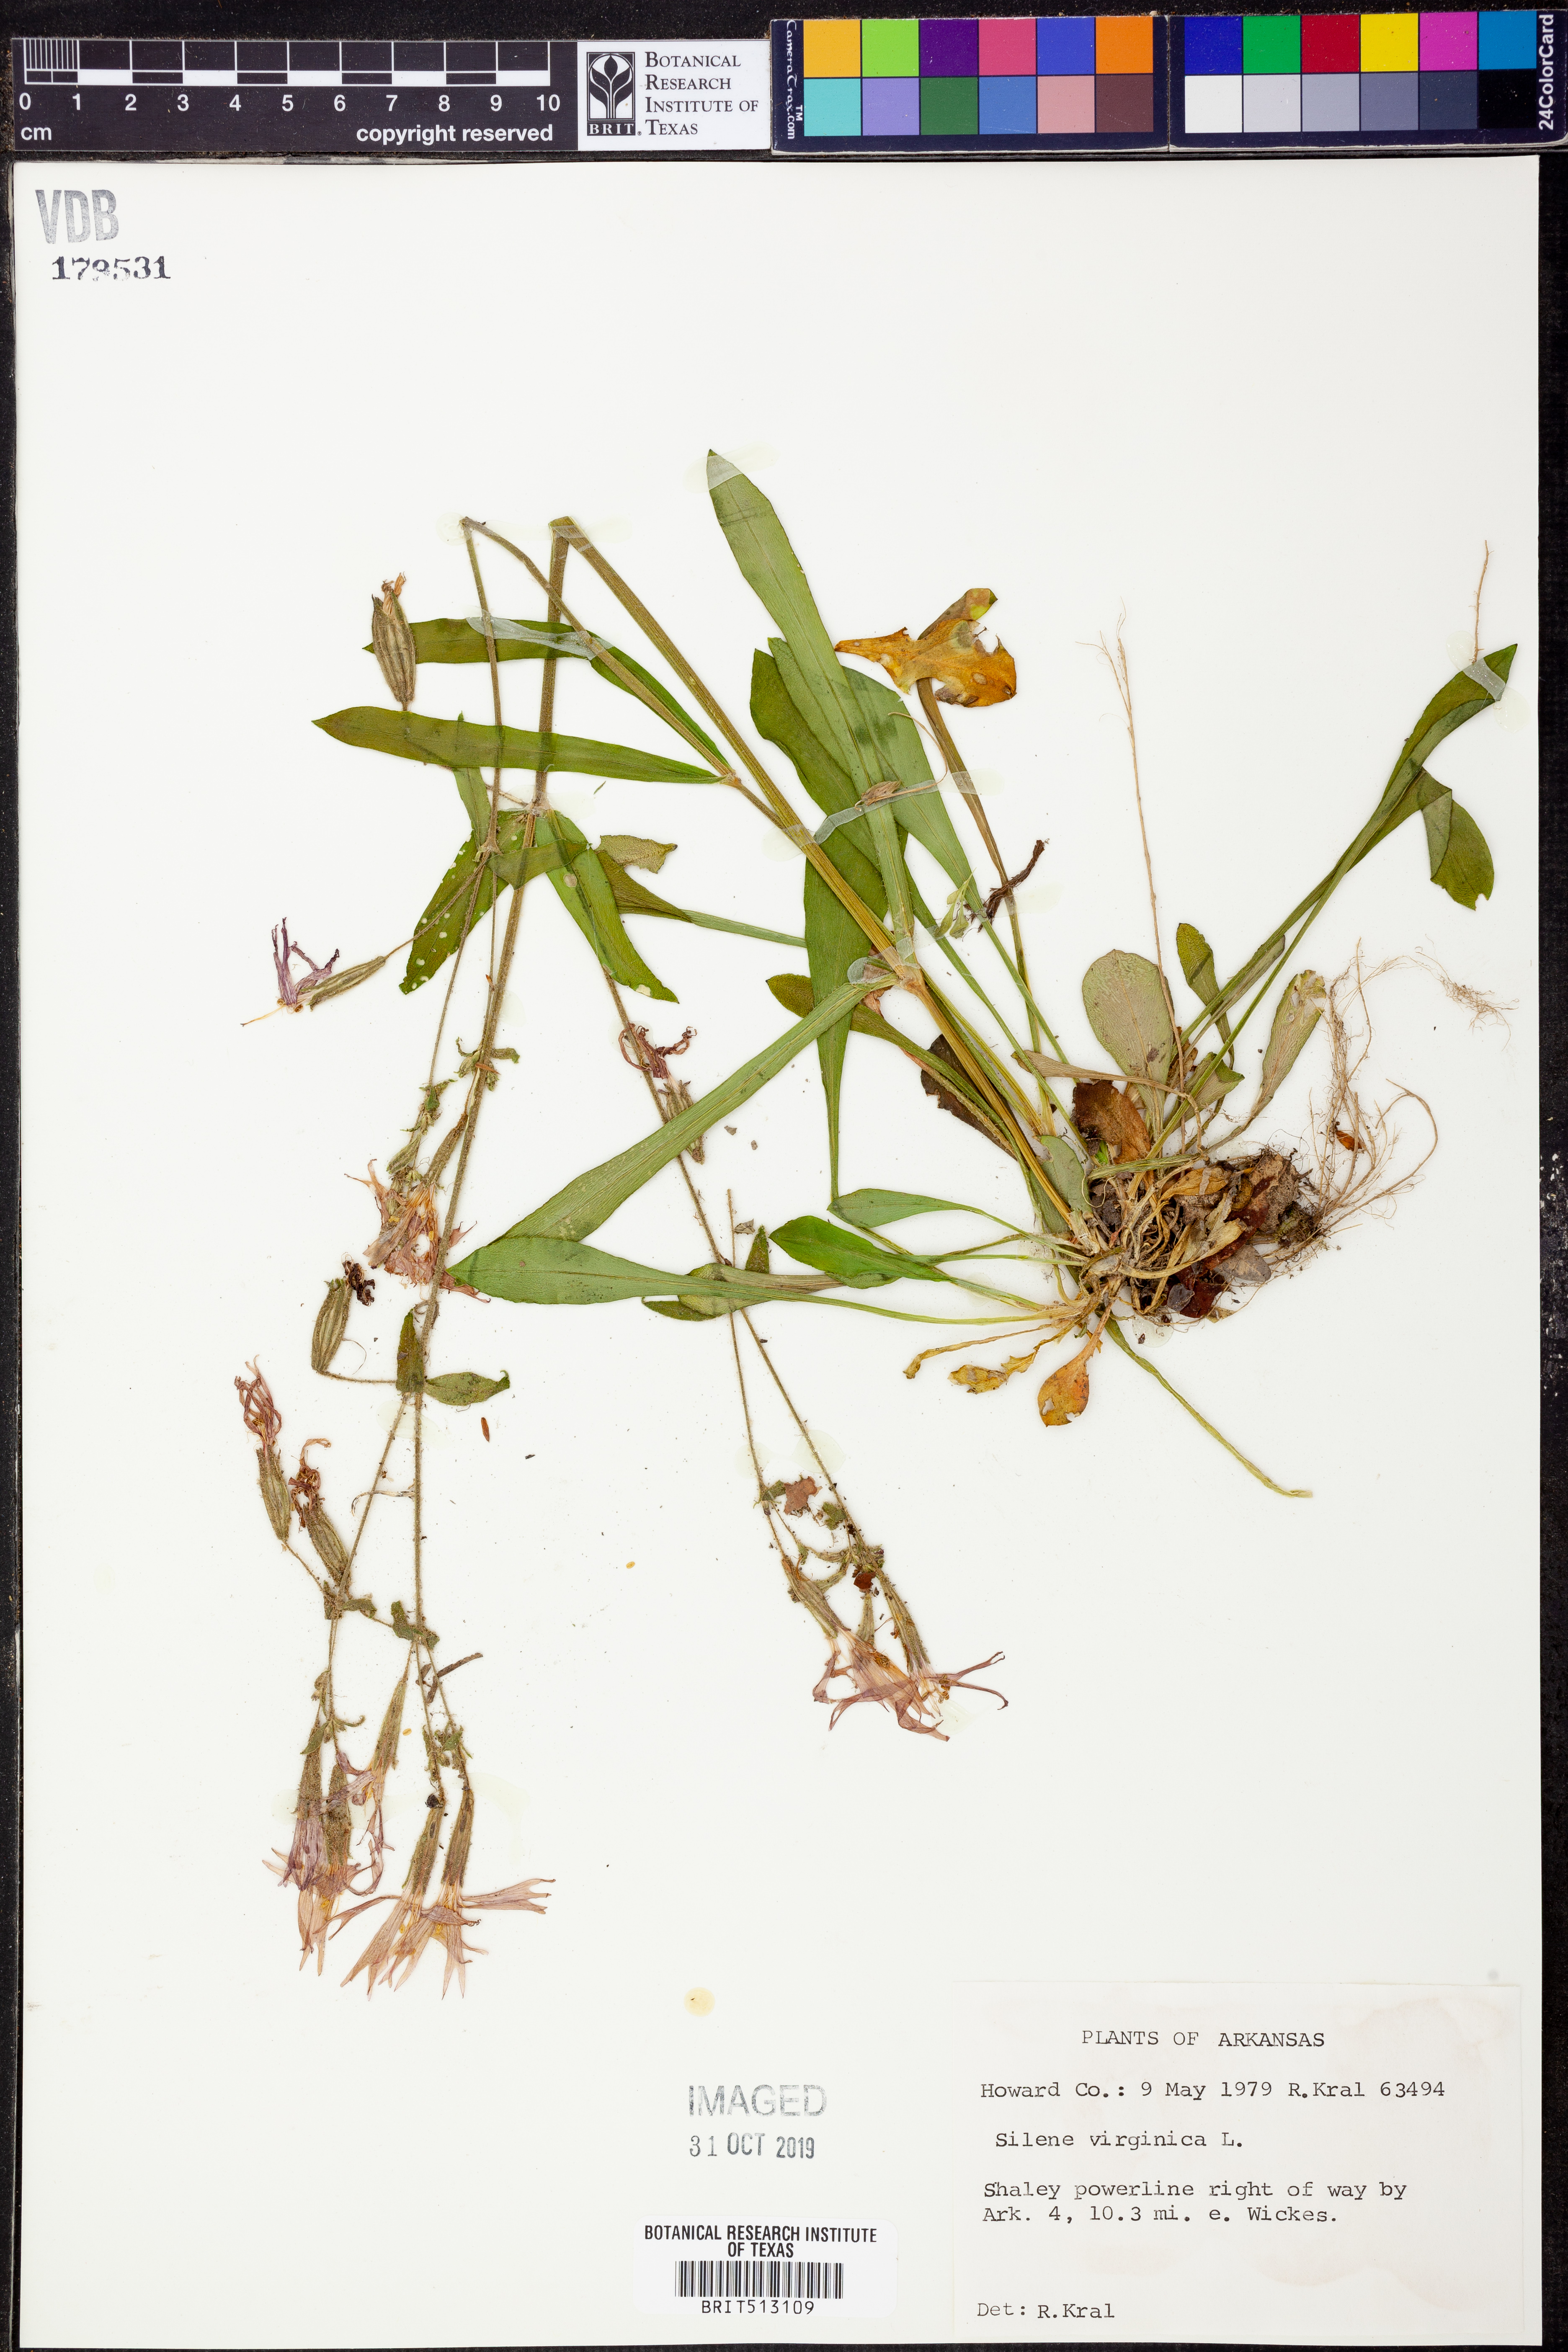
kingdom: Plantae
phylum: Tracheophyta
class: Magnoliopsida
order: Caryophyllales
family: Caryophyllaceae
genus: Silene
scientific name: Silene virginica
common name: Fire-pink
